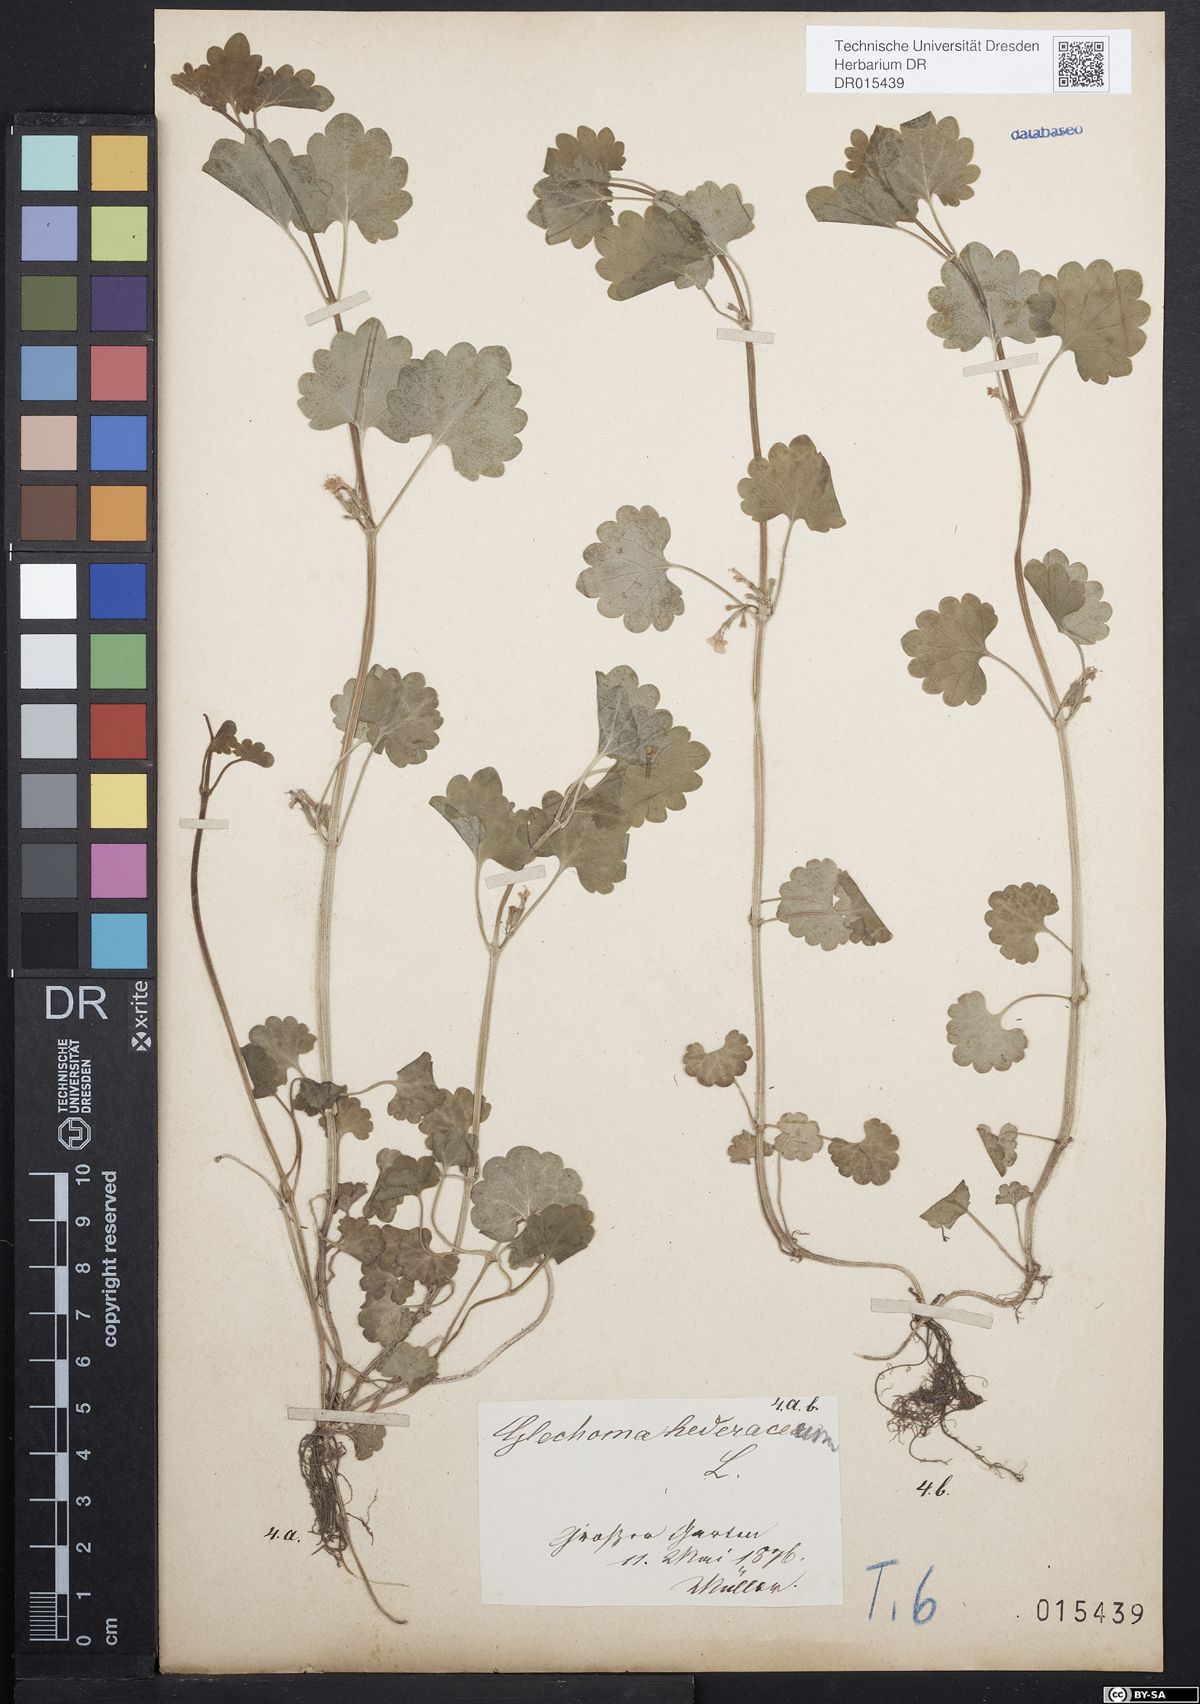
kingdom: Plantae
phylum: Tracheophyta
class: Magnoliopsida
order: Lamiales
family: Lamiaceae
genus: Glechoma
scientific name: Glechoma hederacea
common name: Ground ivy
